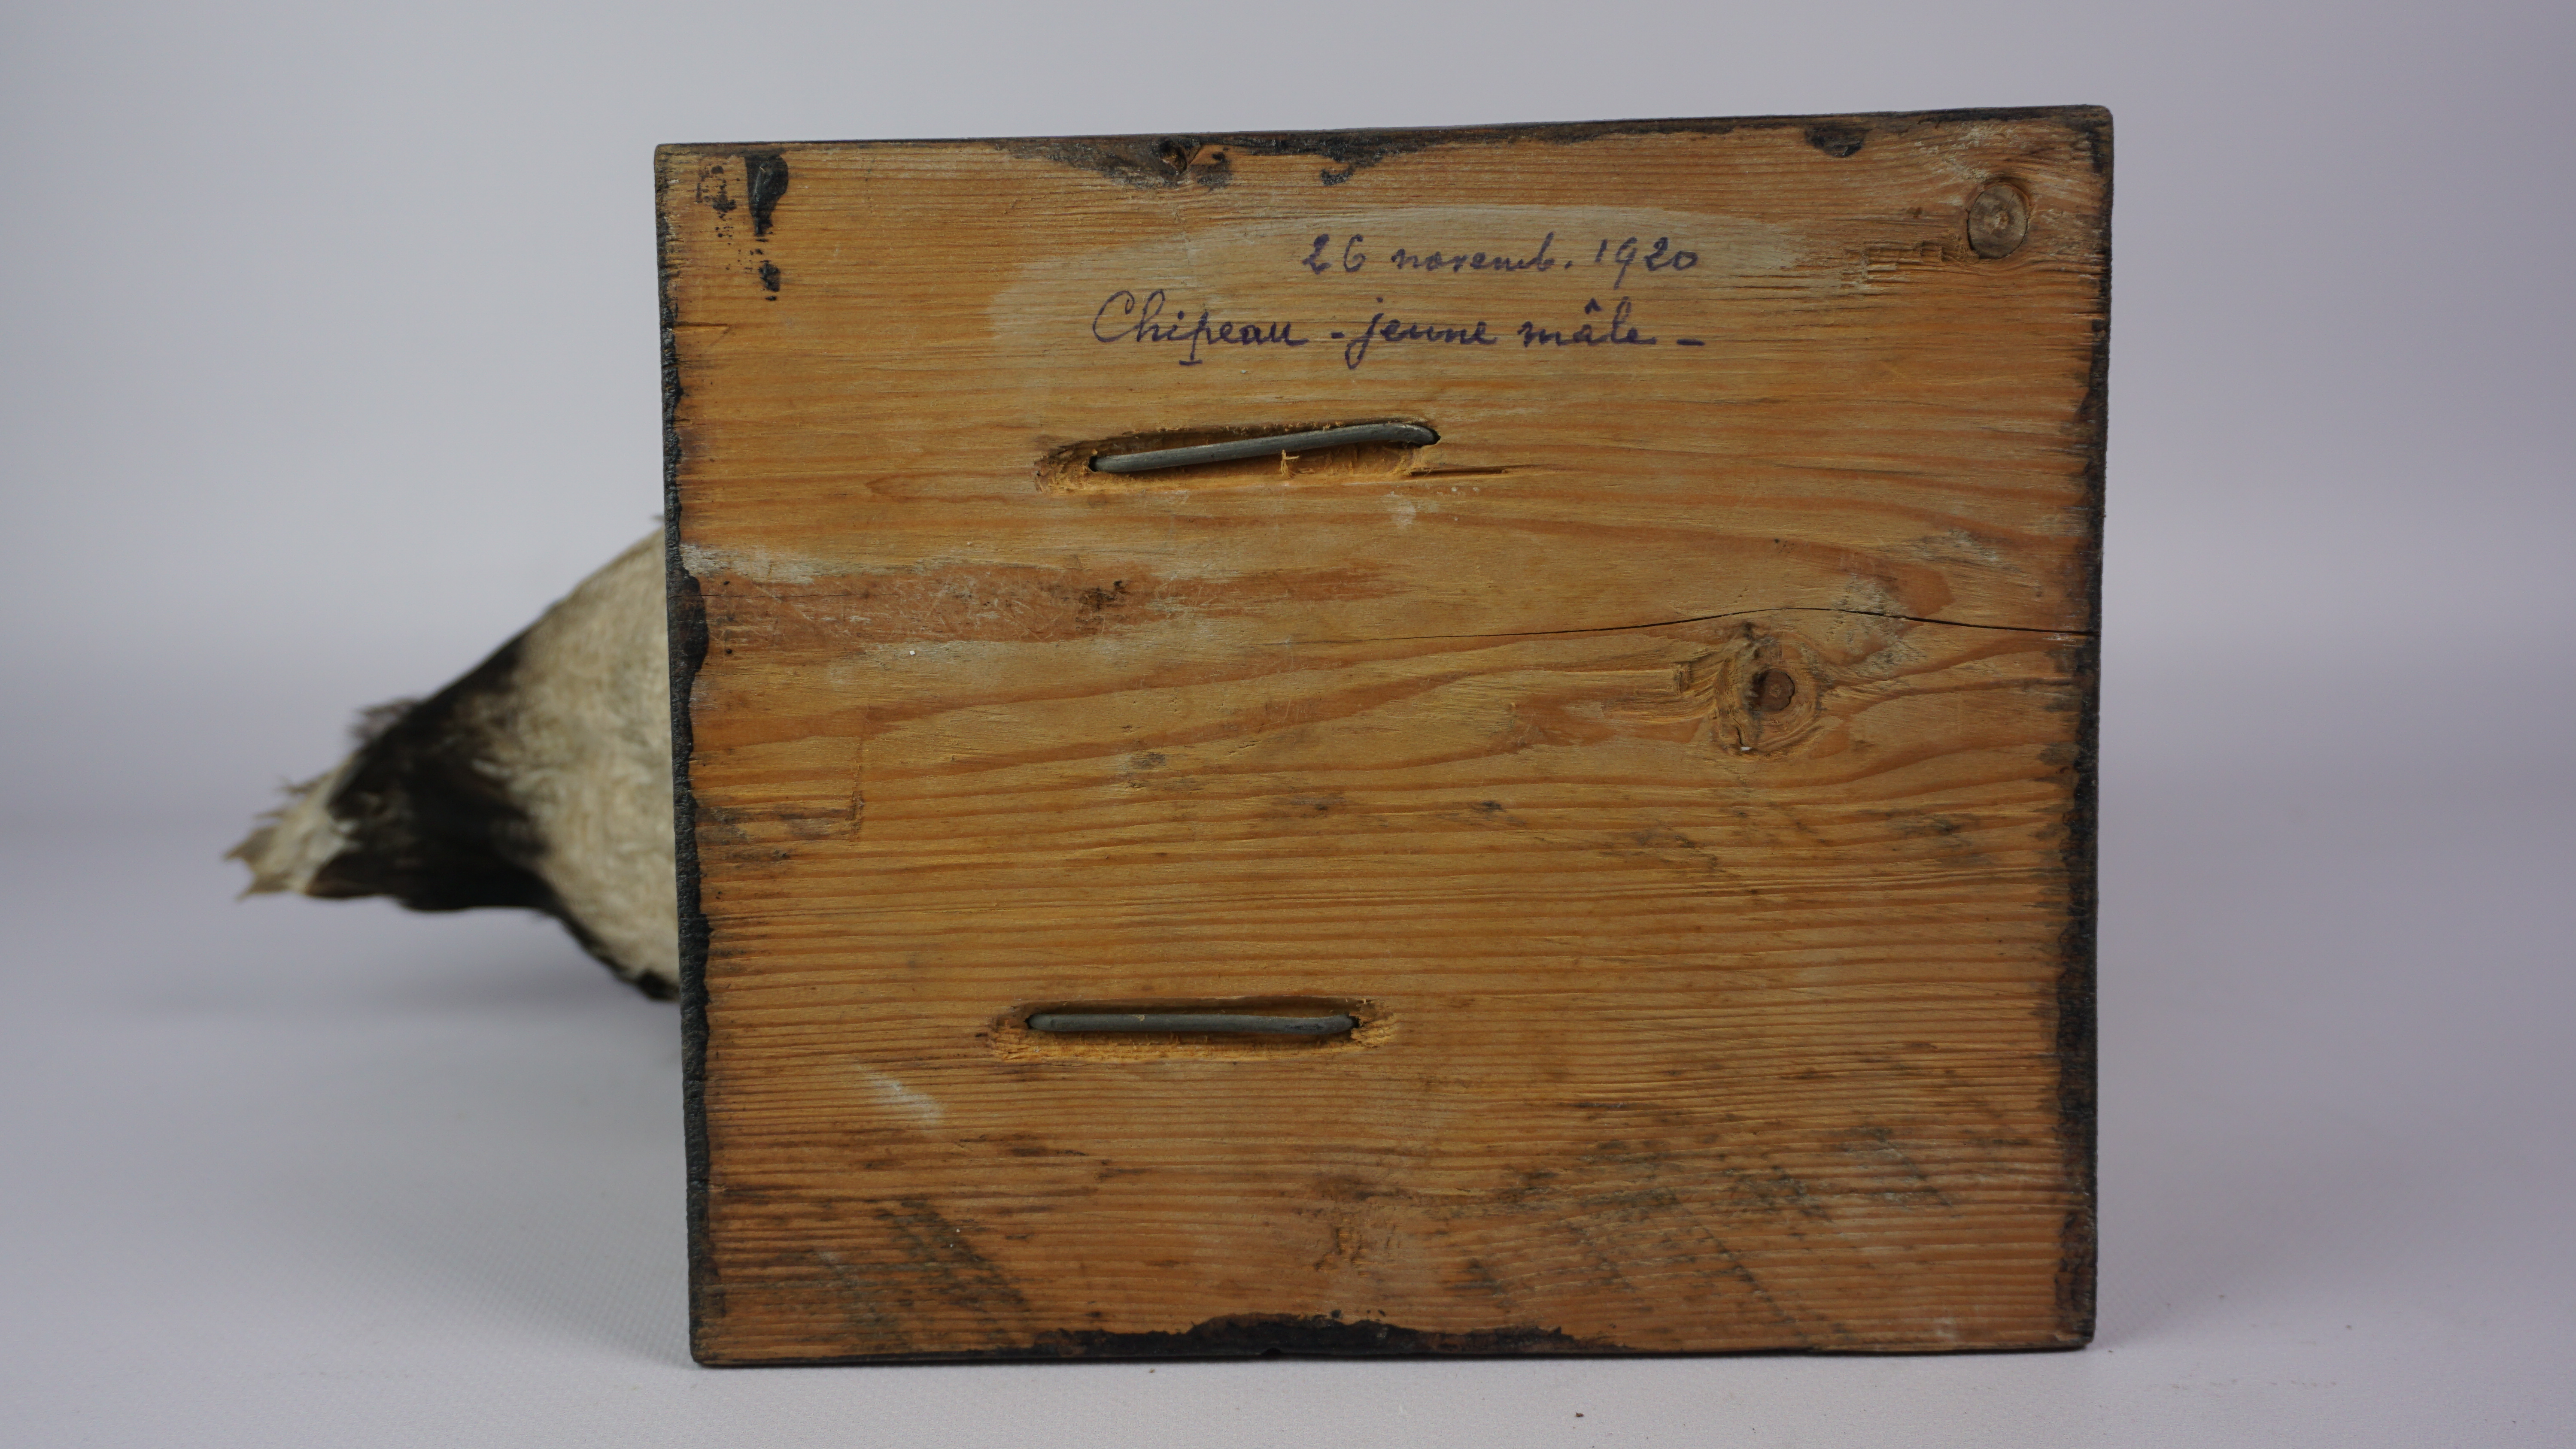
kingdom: Animalia
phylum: Chordata
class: Aves
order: Anseriformes
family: Anatidae
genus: Mareca
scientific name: Mareca strepera
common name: Gadwall
